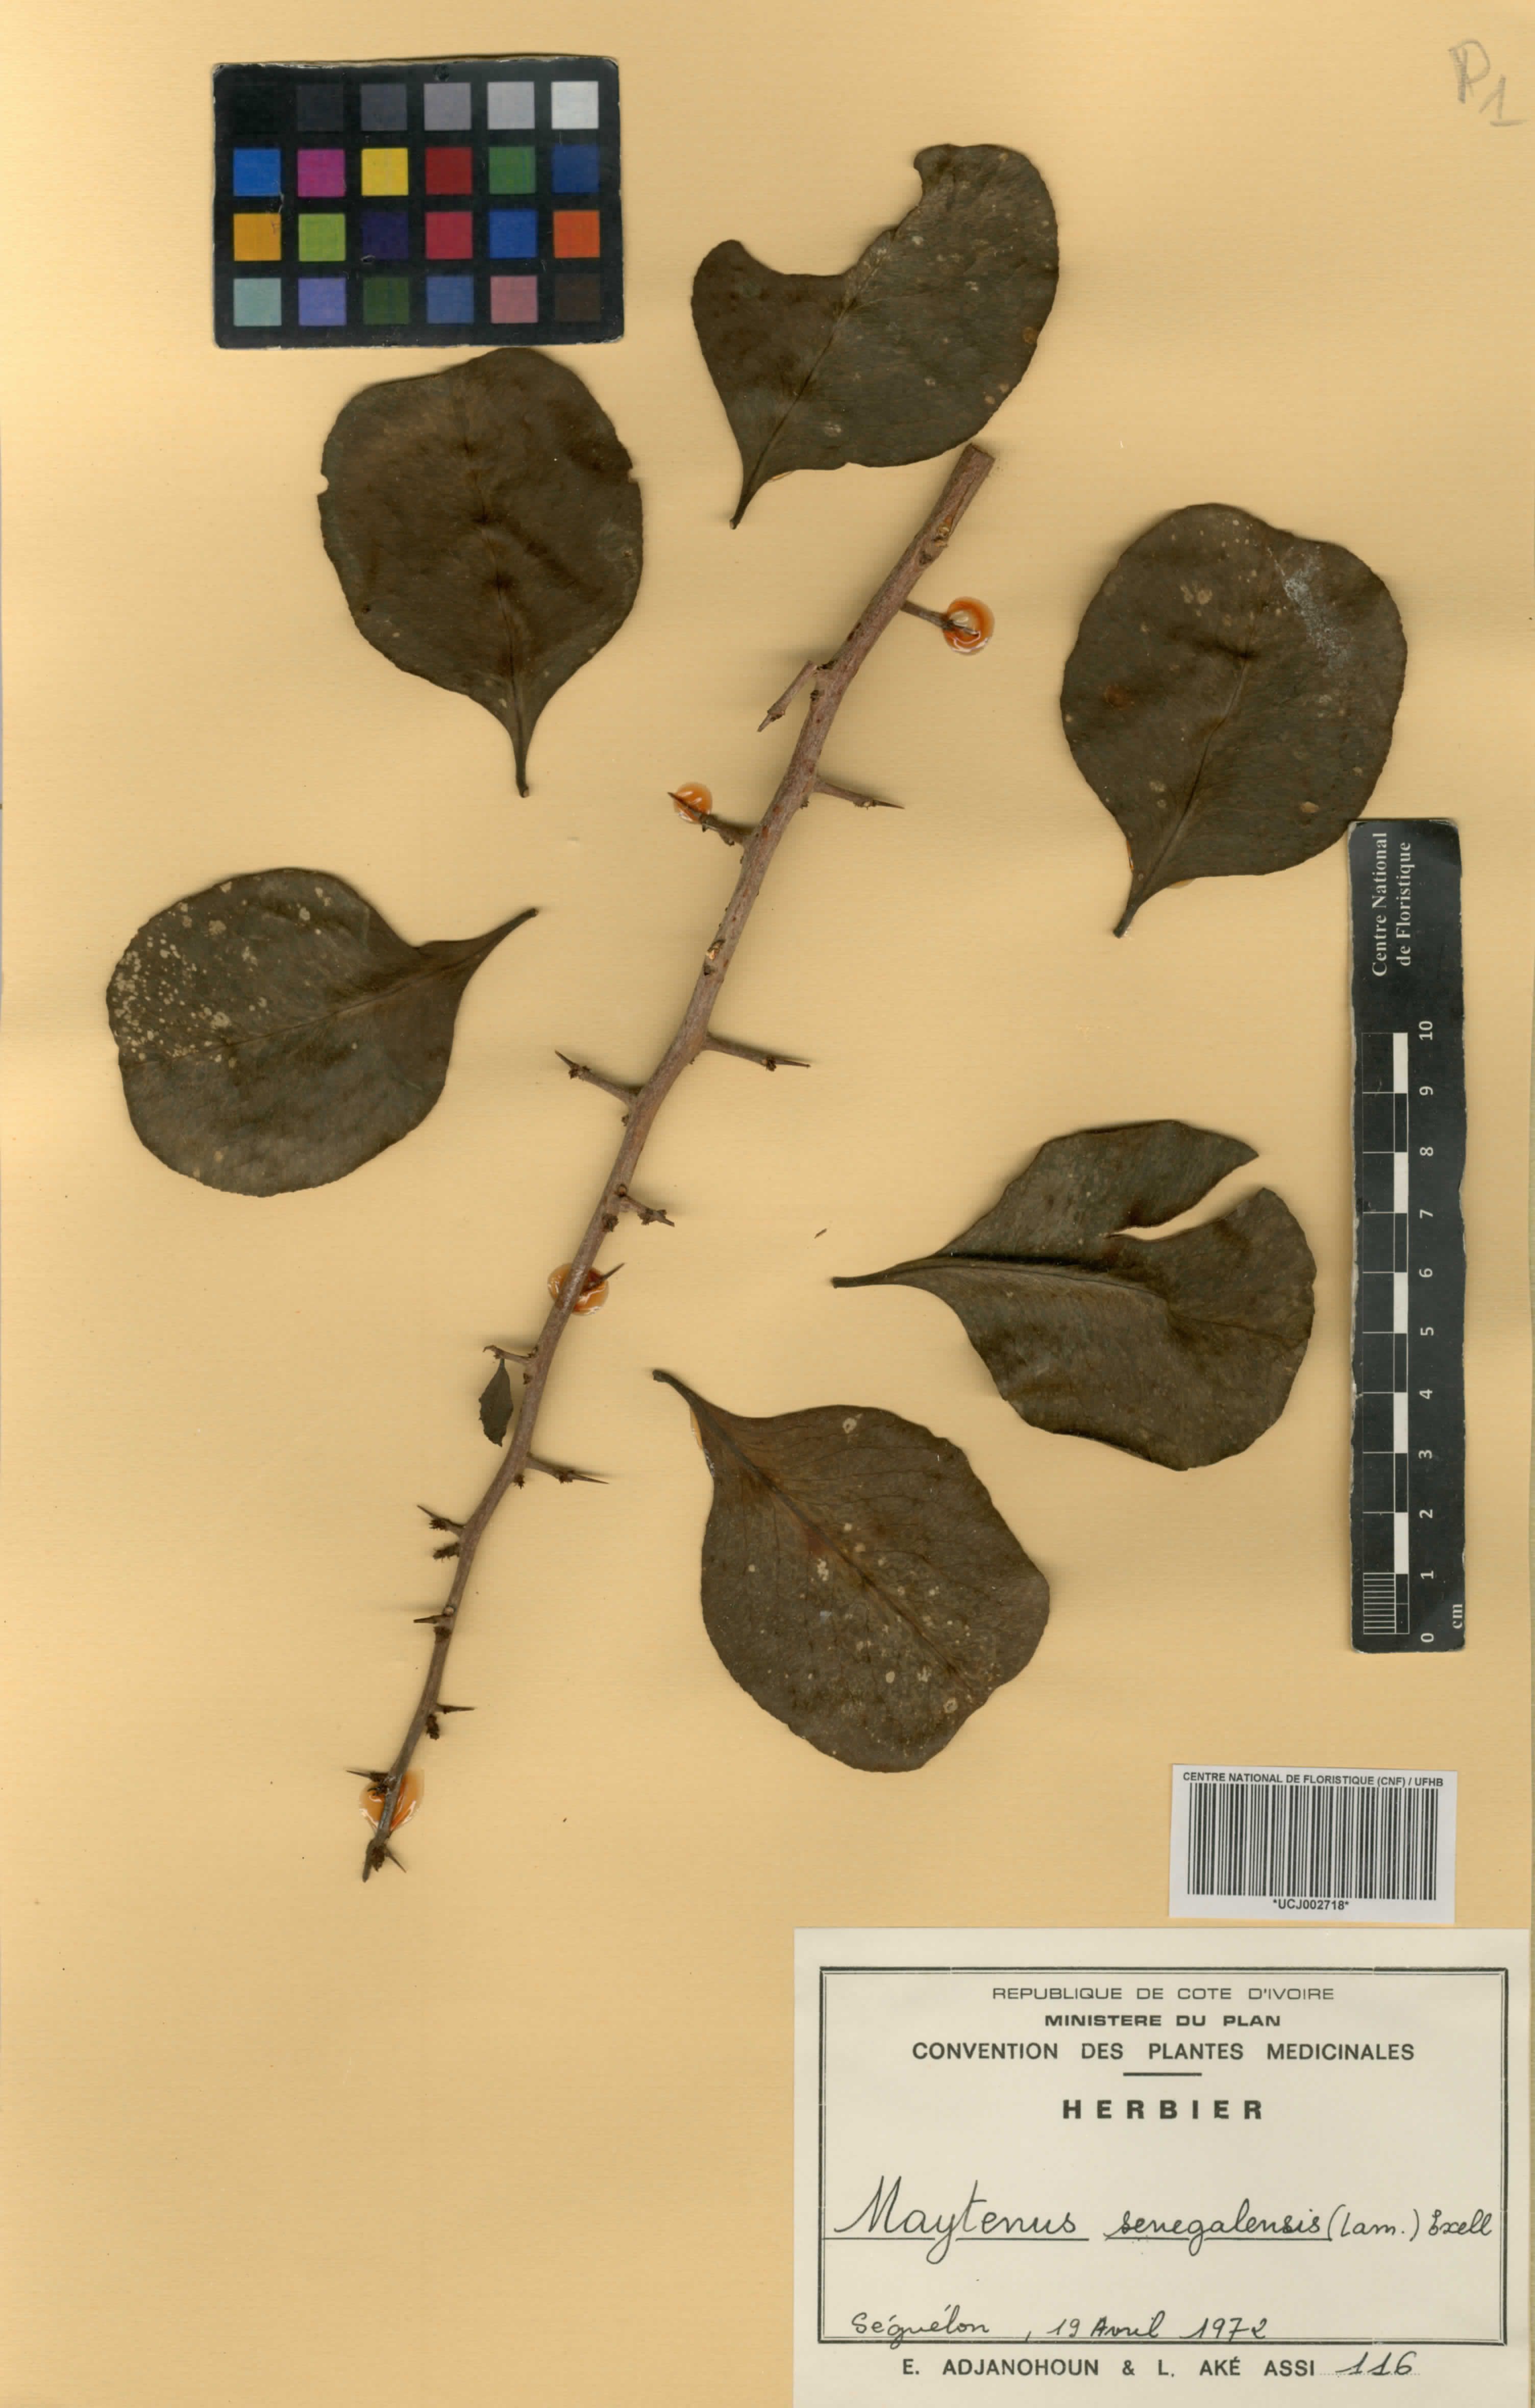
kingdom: Plantae
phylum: Tracheophyta
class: Magnoliopsida
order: Celastrales
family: Celastraceae
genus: Gymnosporia
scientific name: Gymnosporia senegalensis
